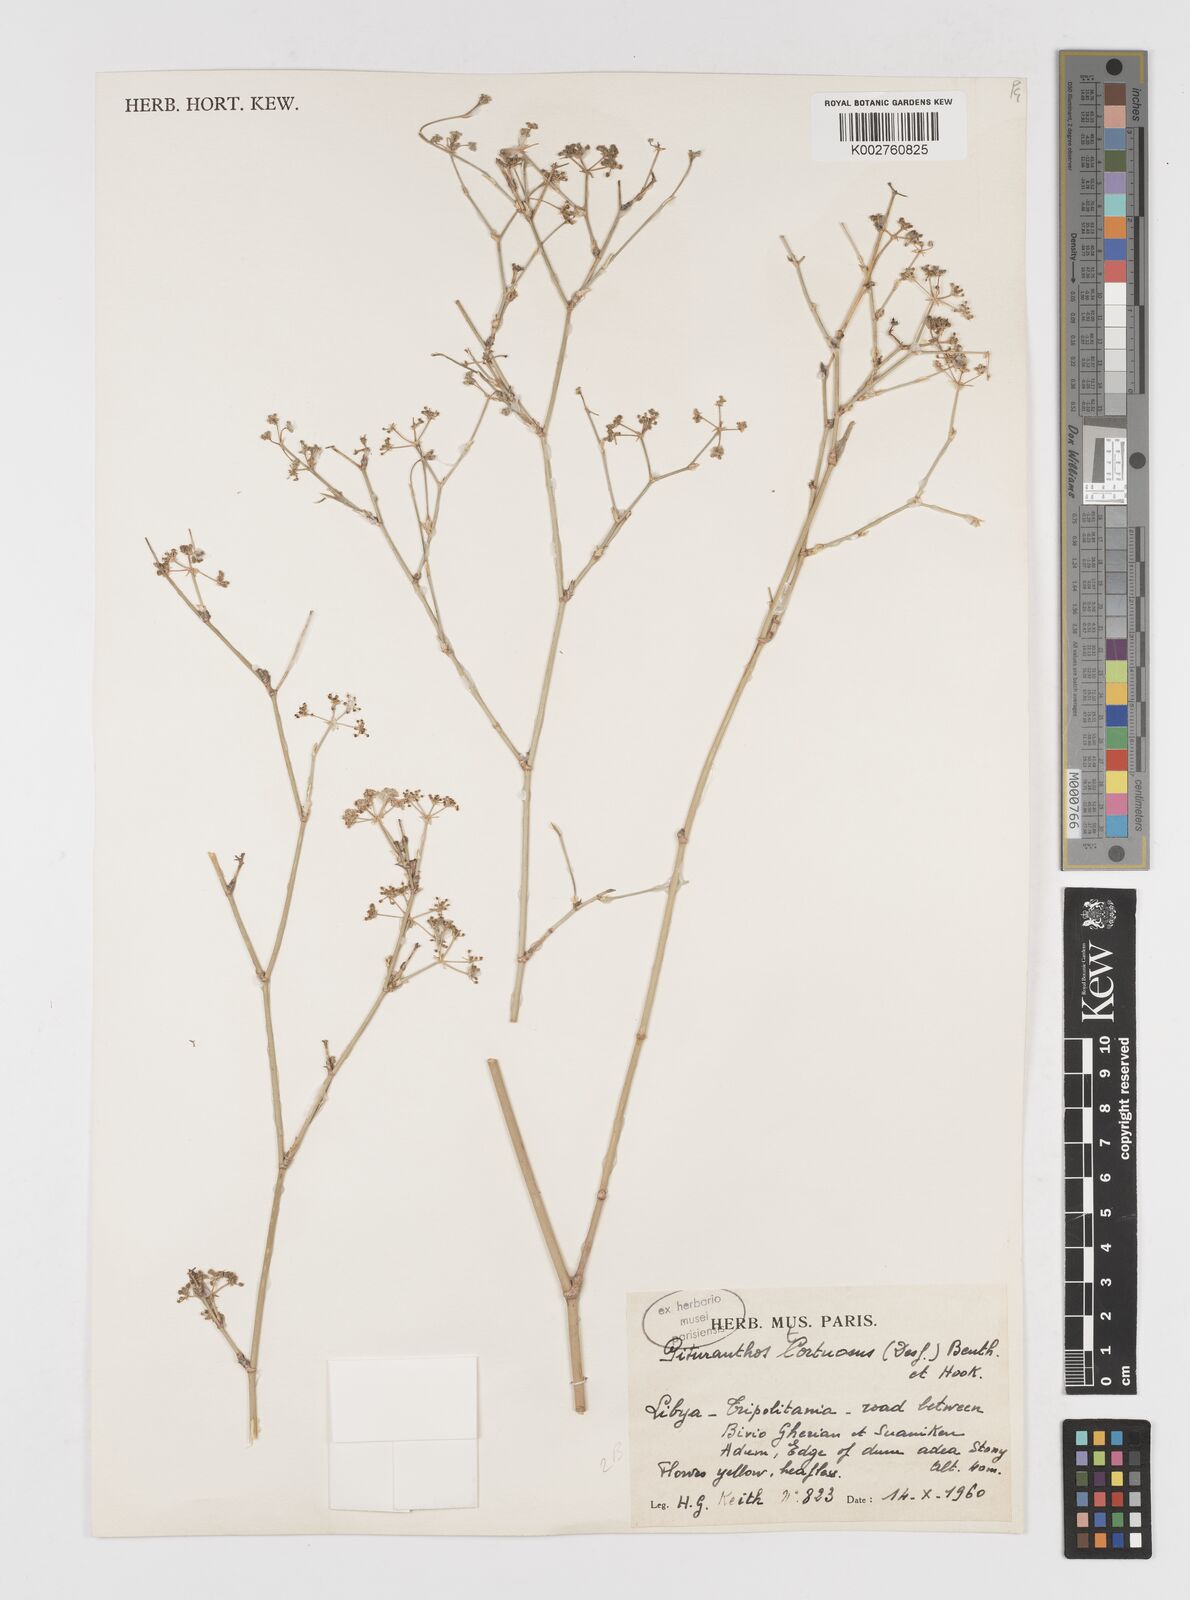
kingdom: Plantae
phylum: Tracheophyta
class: Magnoliopsida
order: Apiales
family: Apiaceae
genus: Deverra
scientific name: Deverra tortuosa
